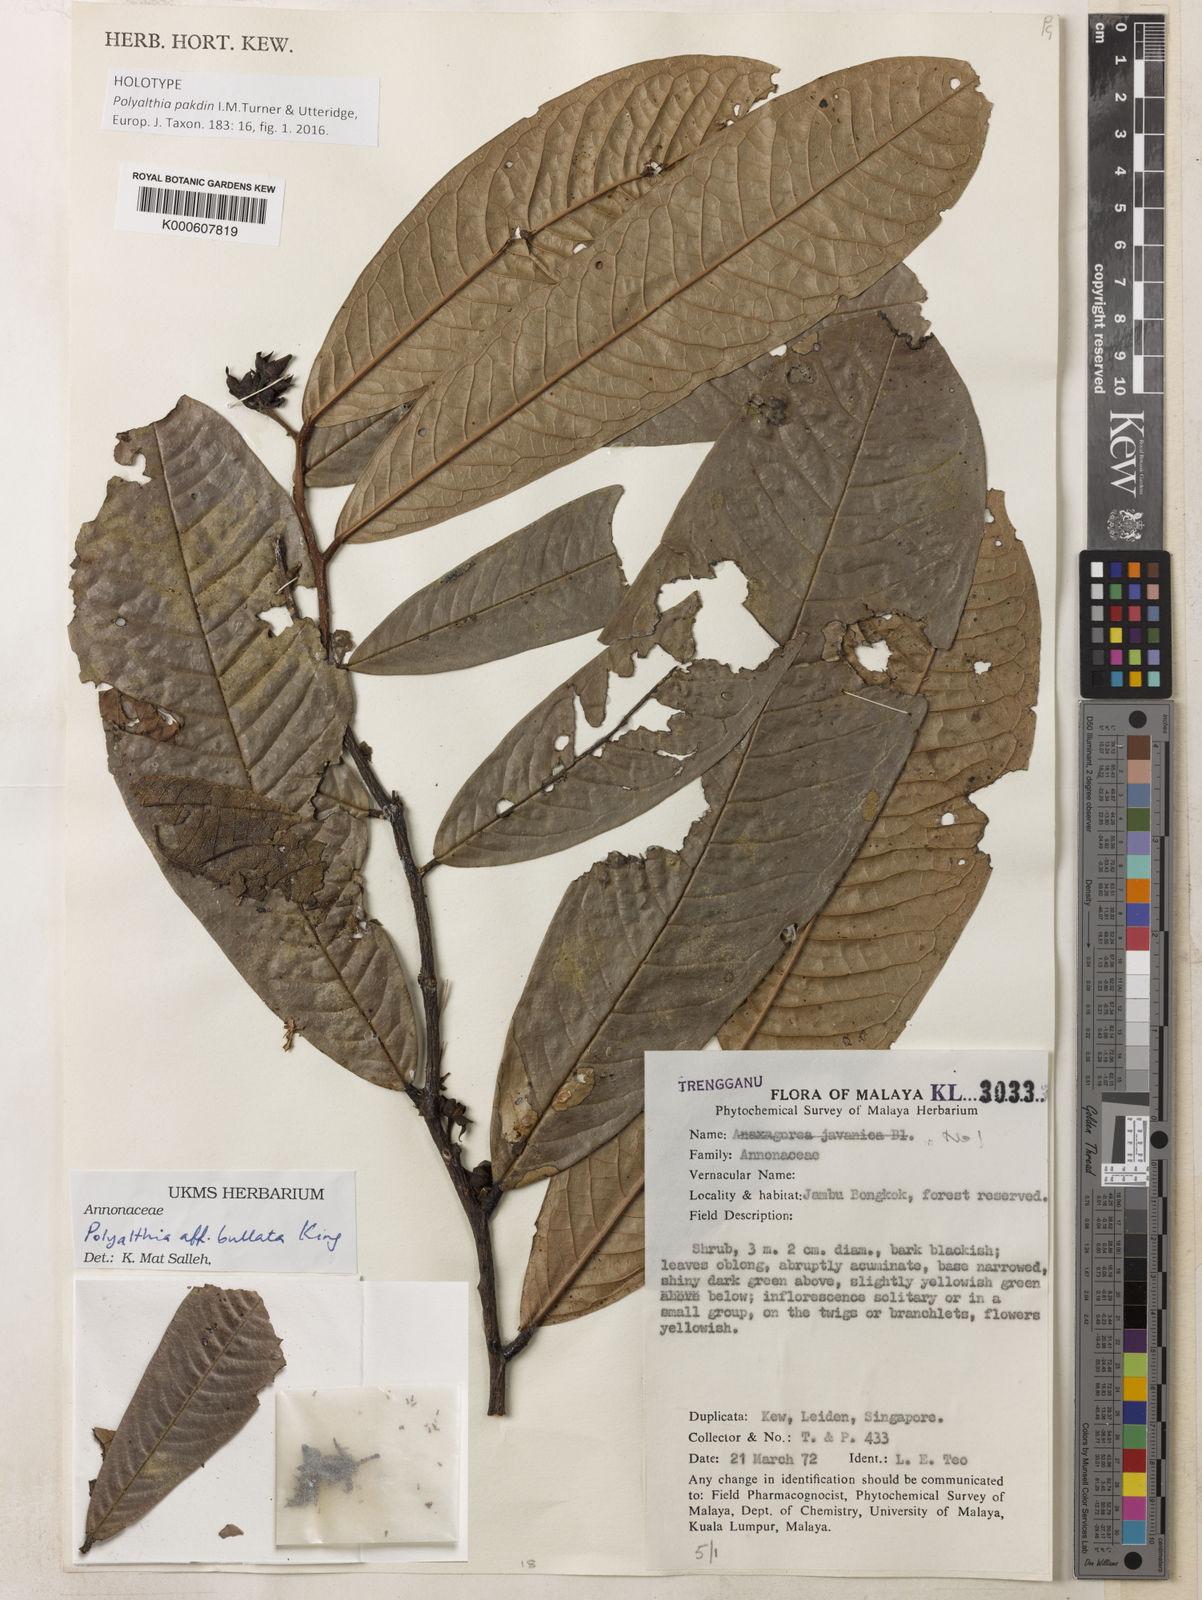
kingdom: Plantae
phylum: Tracheophyta
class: Magnoliopsida
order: Magnoliales
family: Annonaceae
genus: Polyalthia
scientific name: Polyalthia
